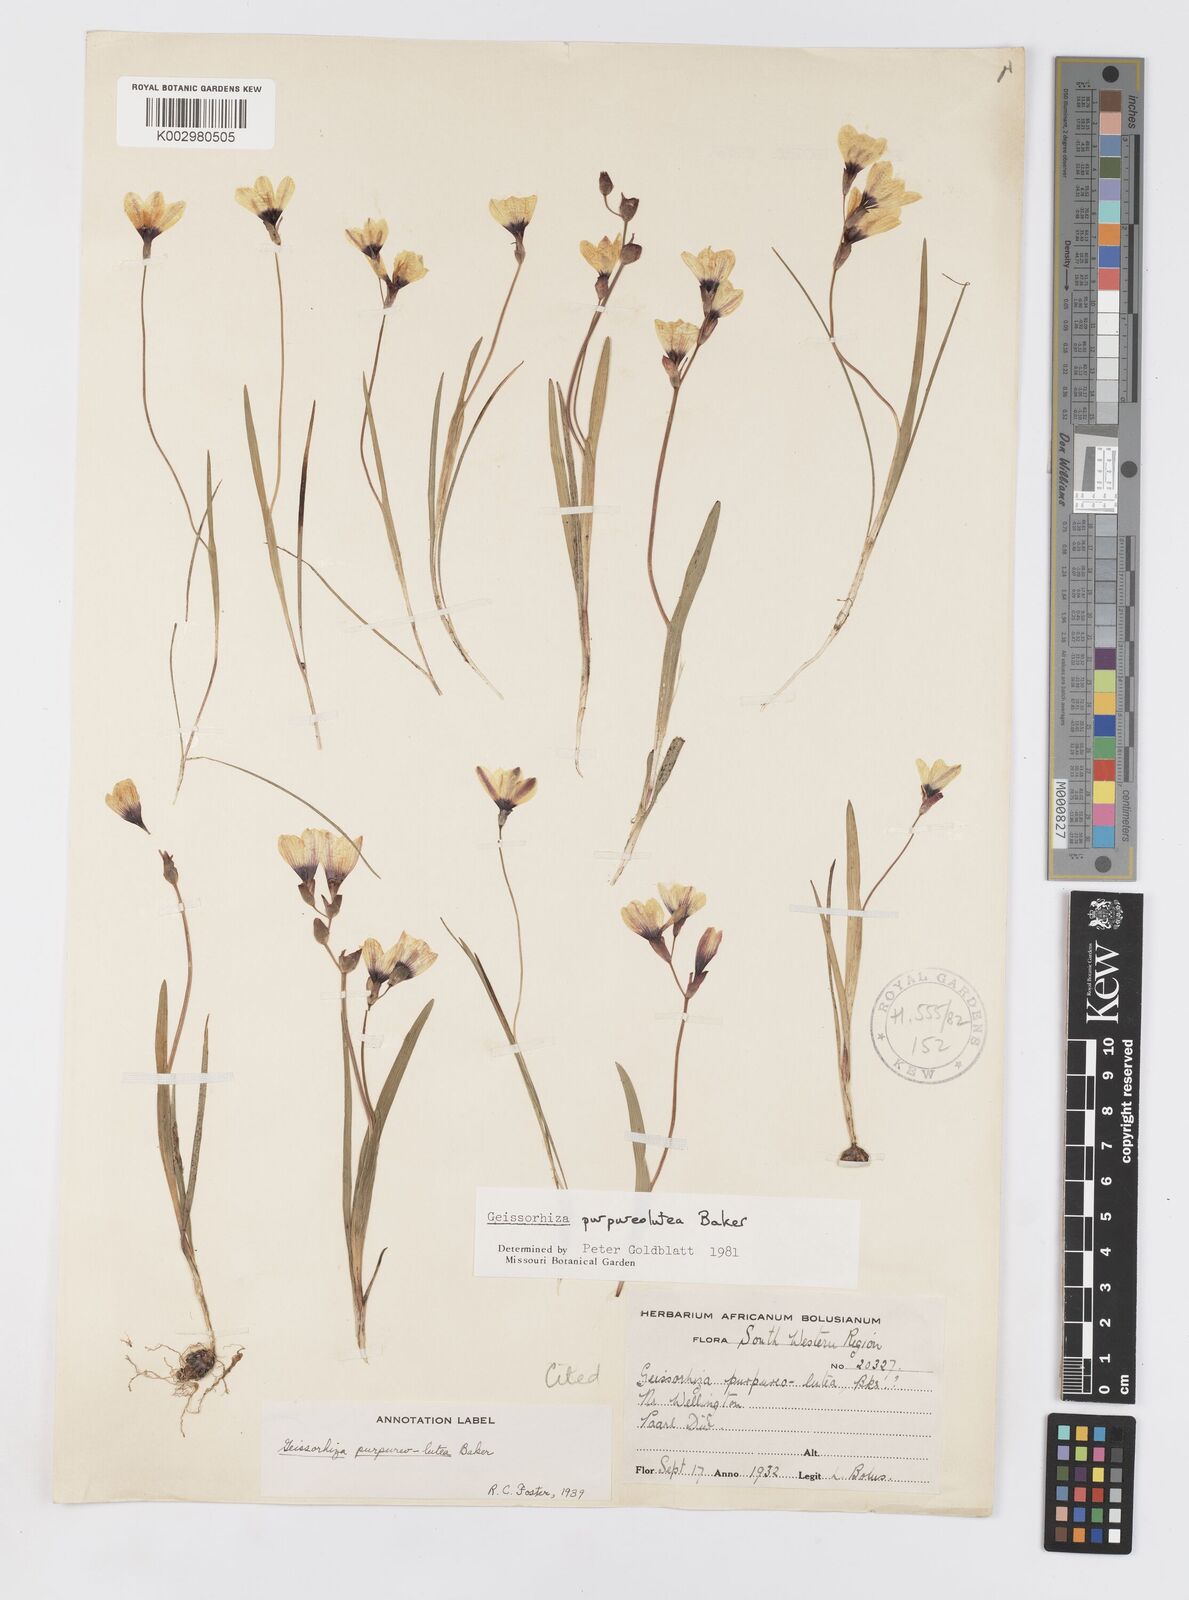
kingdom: Plantae
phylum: Tracheophyta
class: Liliopsida
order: Asparagales
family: Iridaceae
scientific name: Iridaceae
